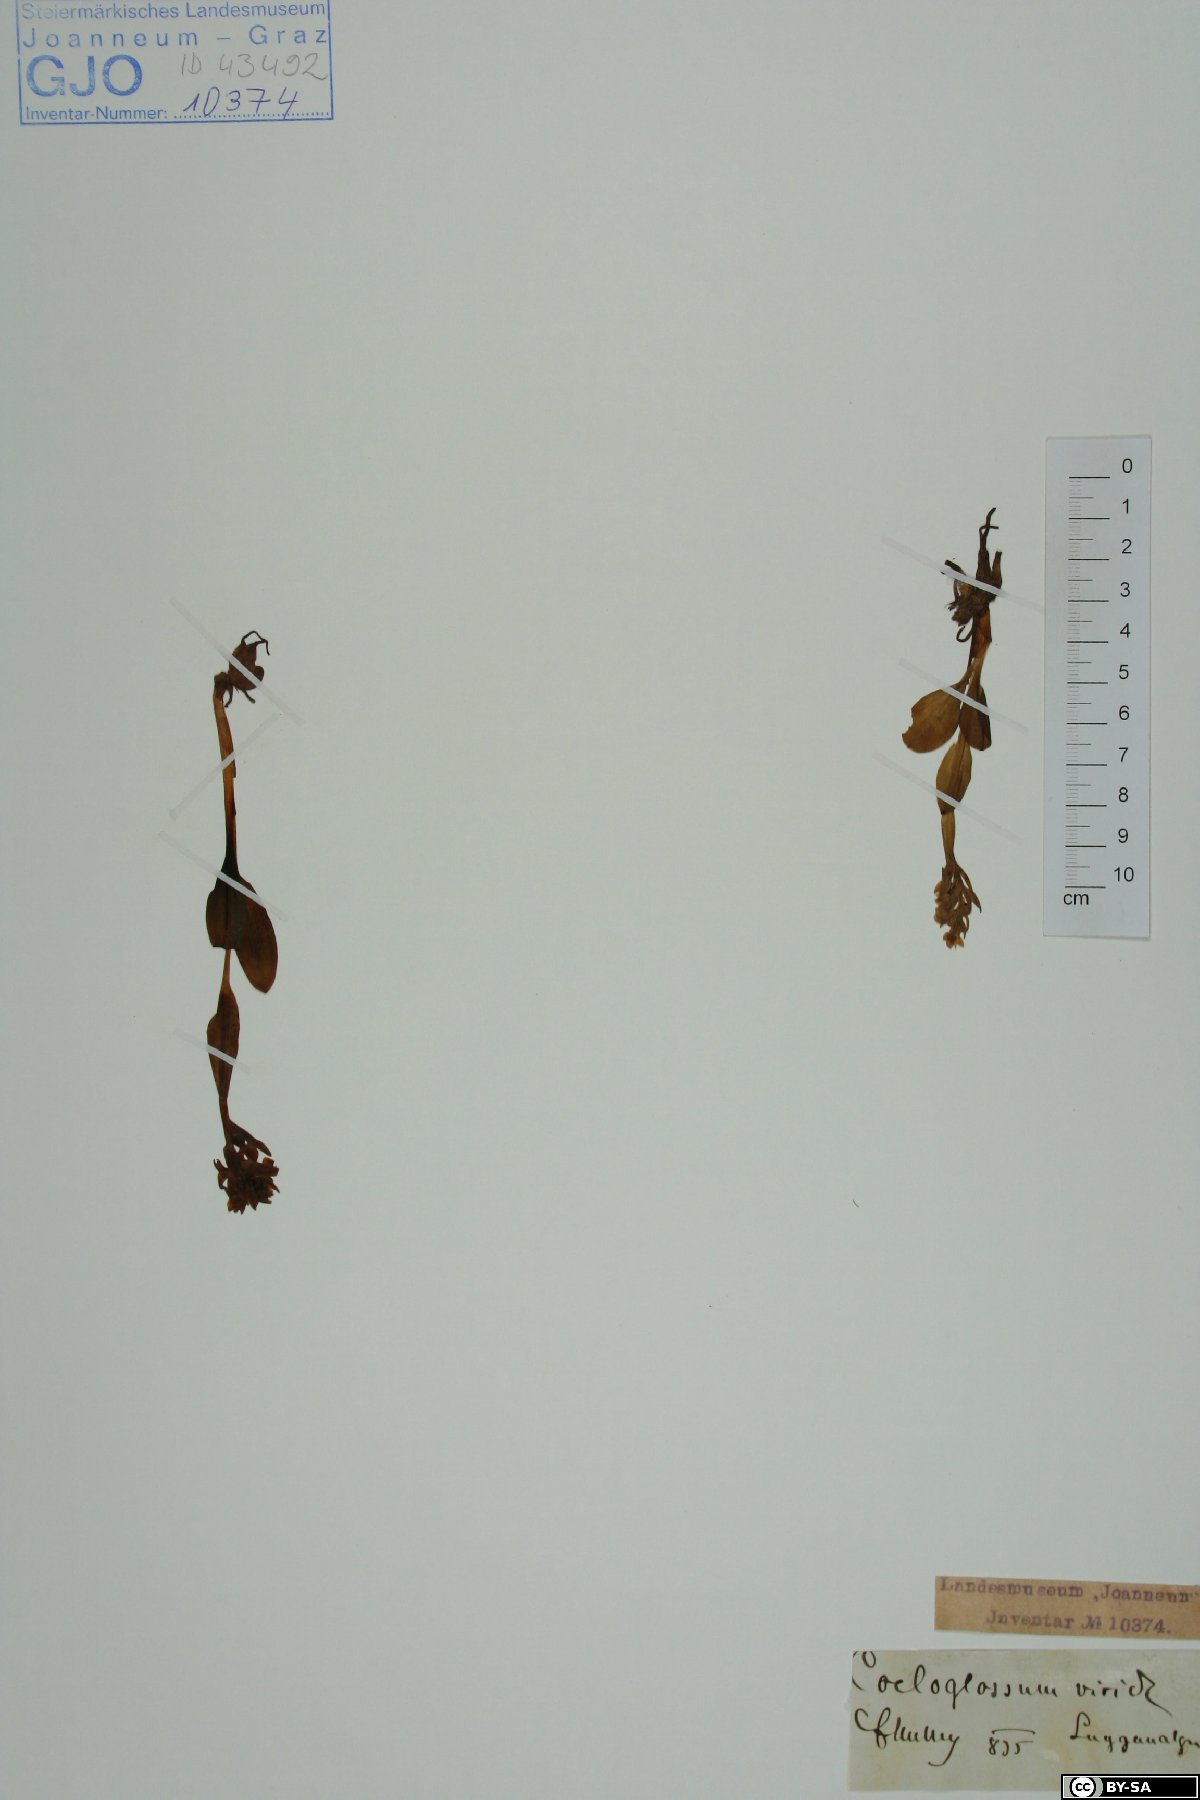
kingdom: Plantae
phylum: Tracheophyta
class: Liliopsida
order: Asparagales
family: Orchidaceae
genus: Dactylorhiza
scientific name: Dactylorhiza viridis
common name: Longbract frog orchid
